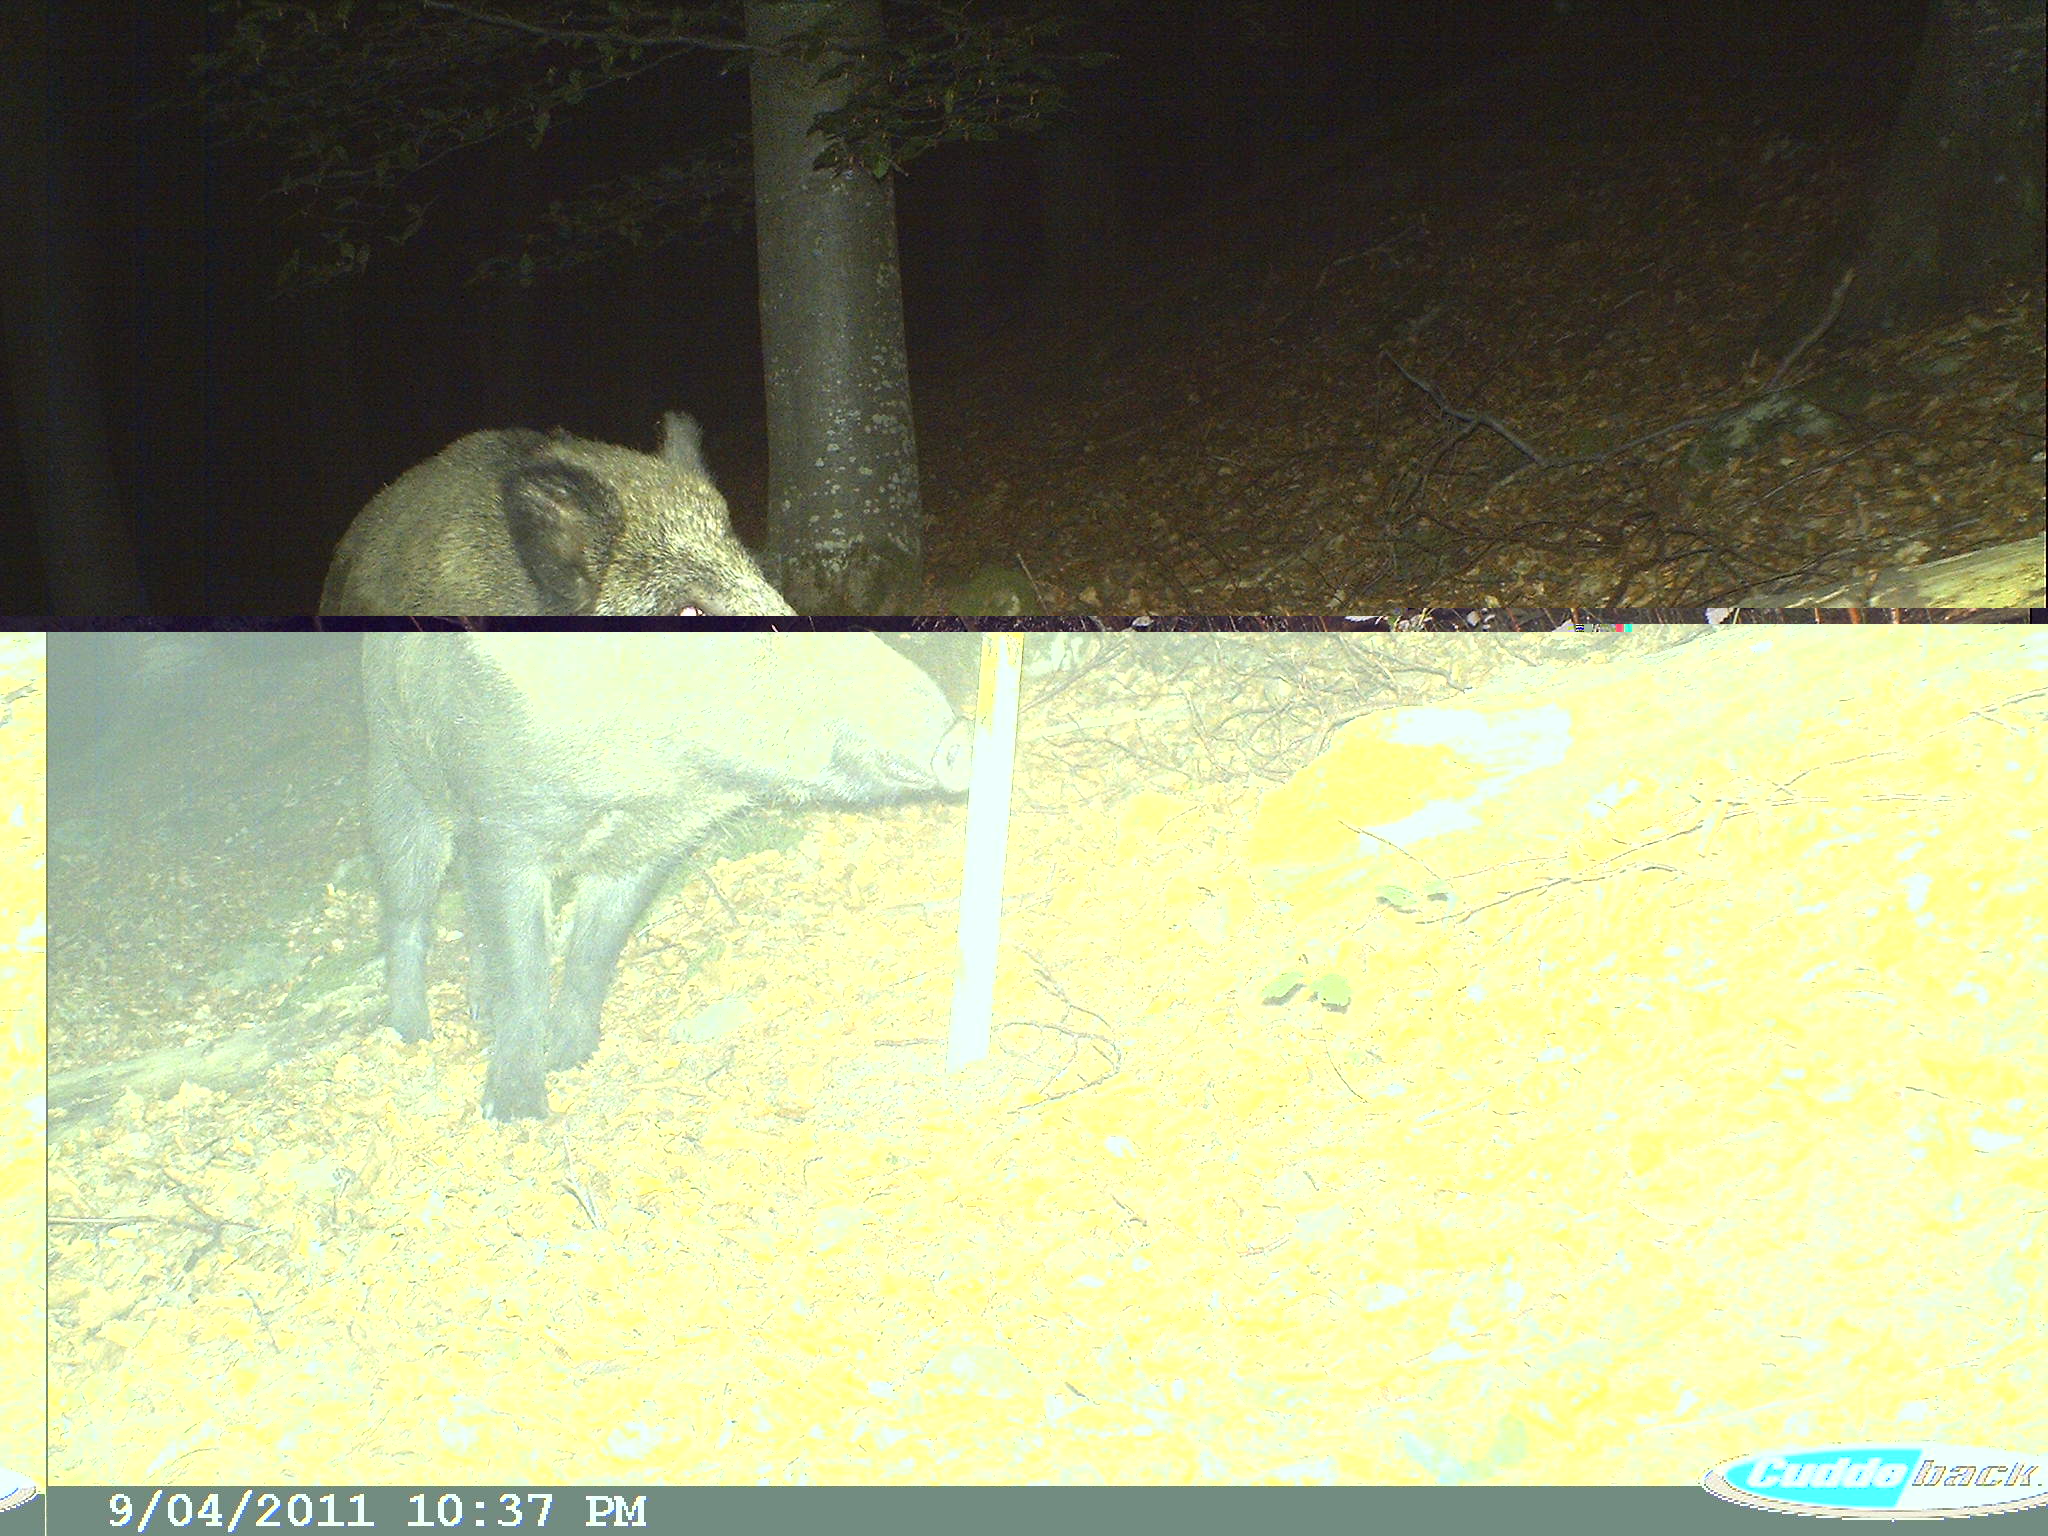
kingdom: Animalia
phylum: Chordata
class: Mammalia
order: Artiodactyla
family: Suidae
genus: Sus
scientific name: Sus scrofa
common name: Wild boar
